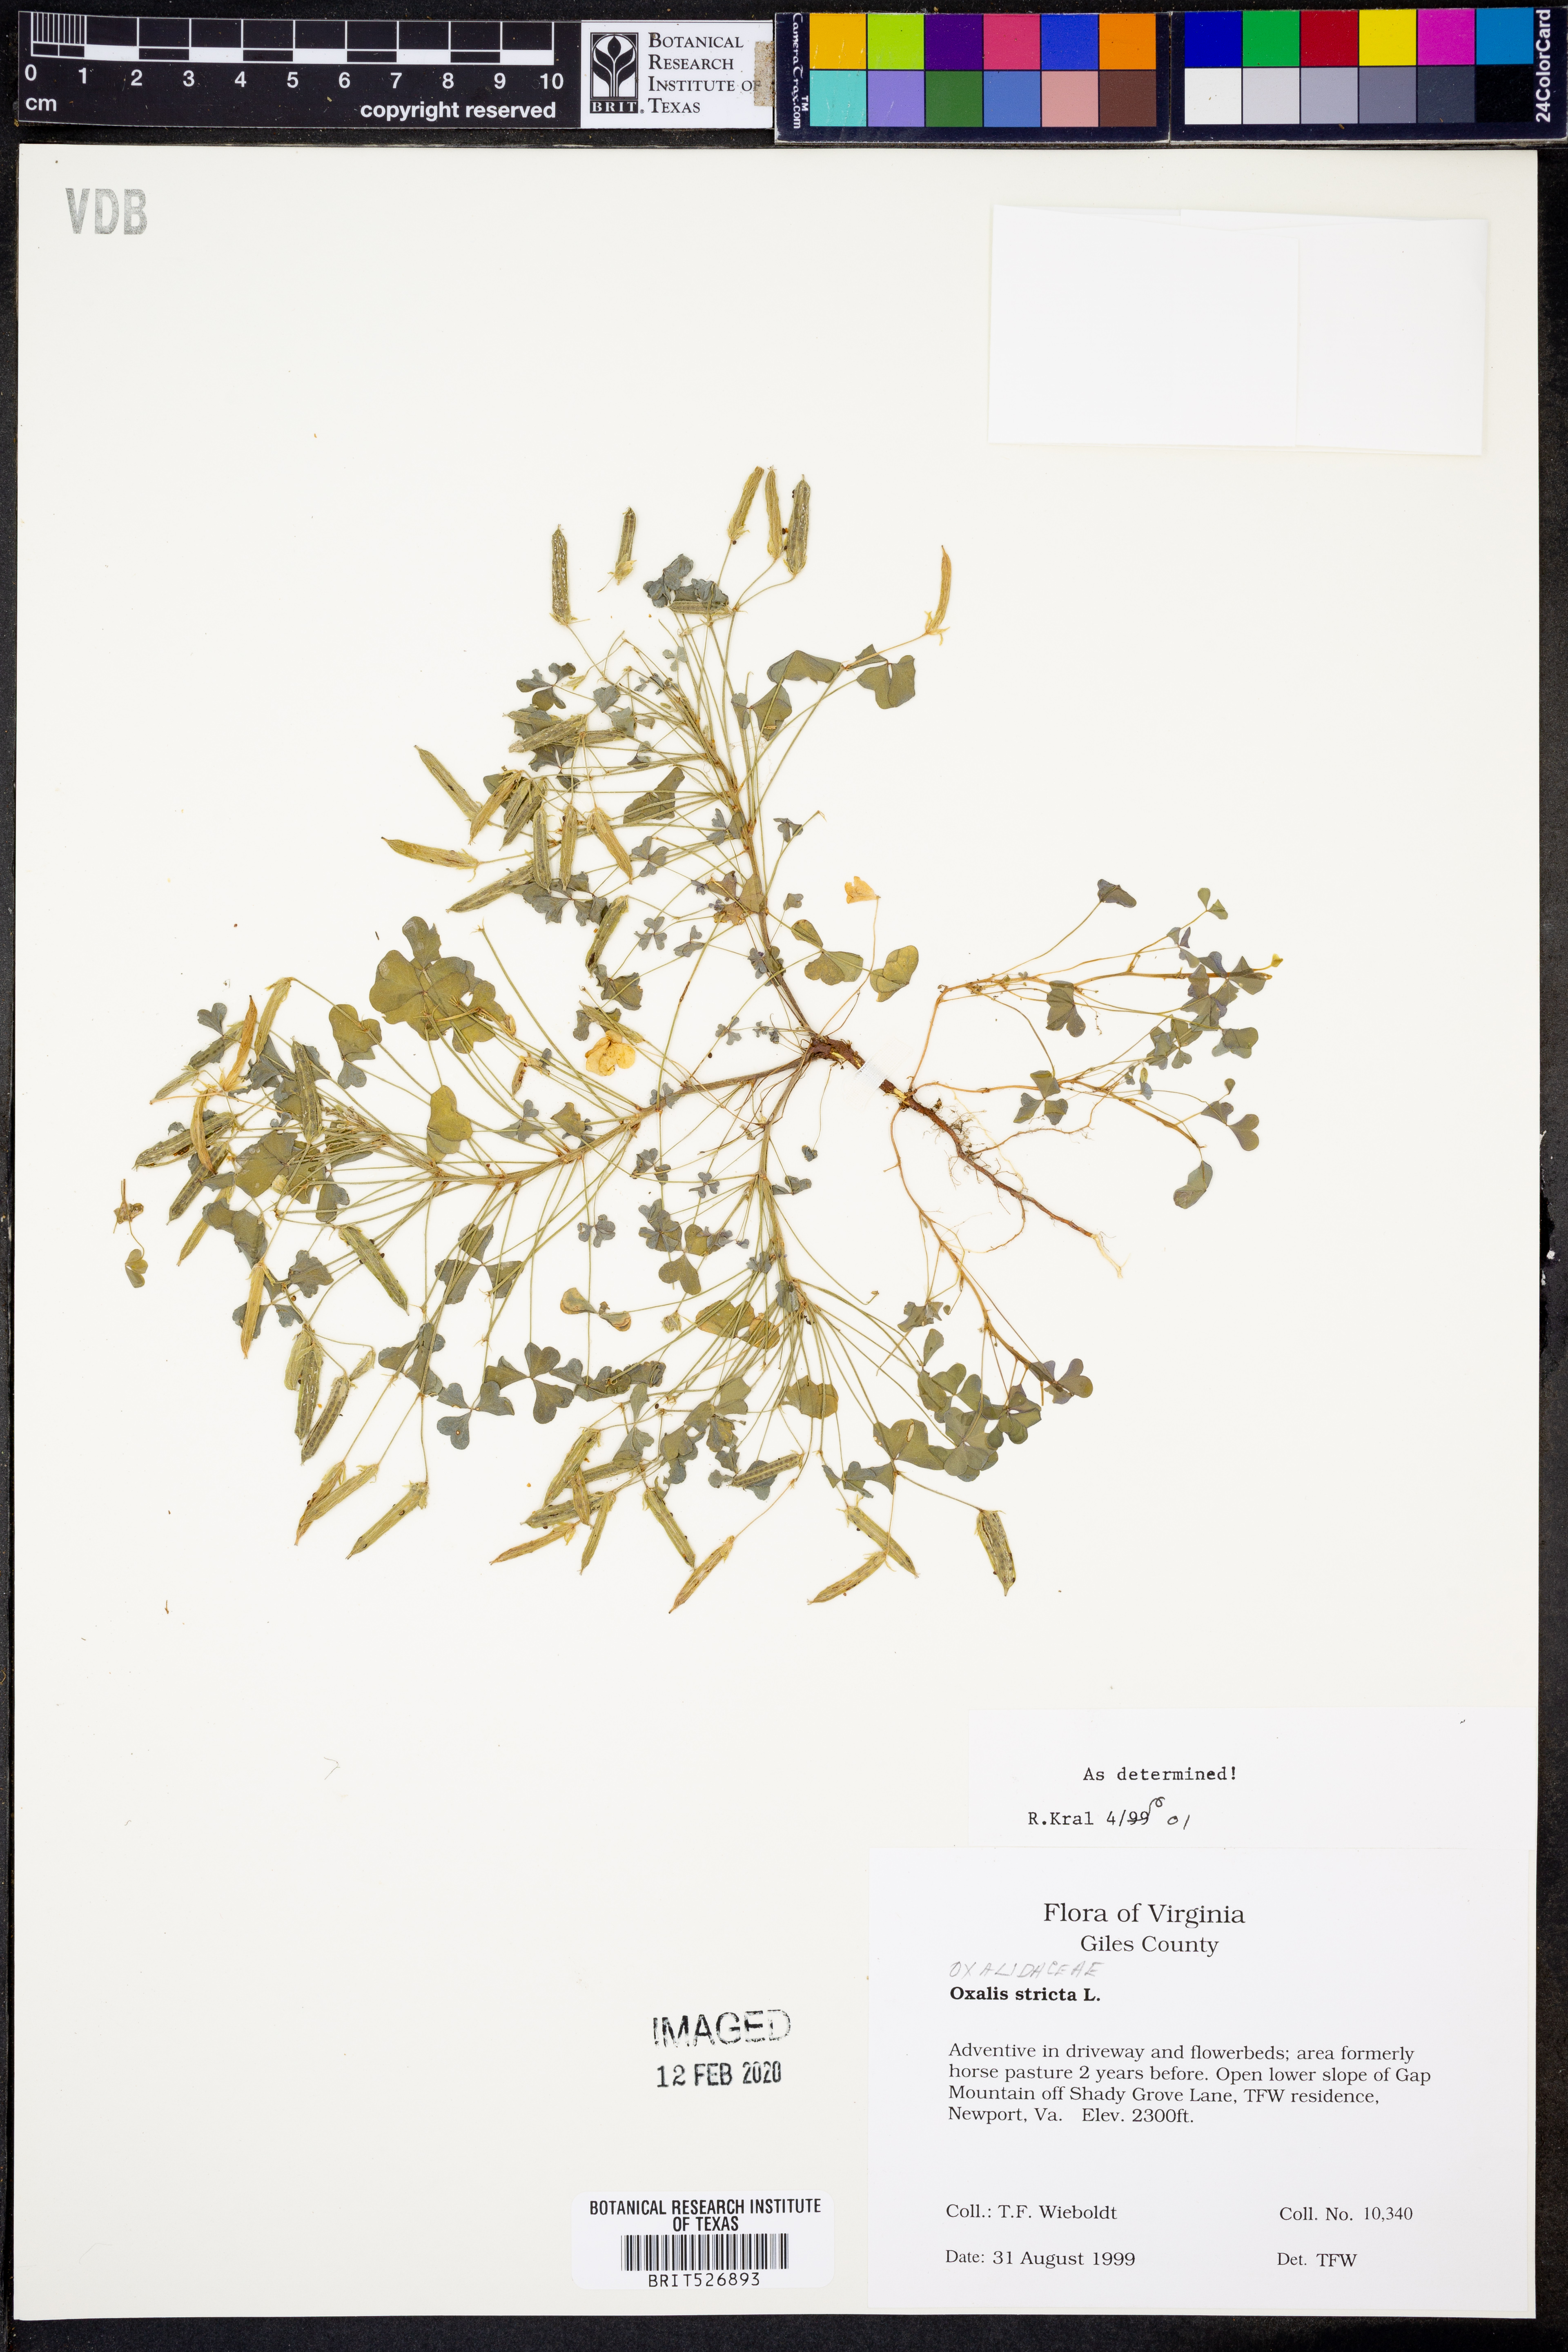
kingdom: Plantae
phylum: Tracheophyta
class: Magnoliopsida
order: Oxalidales
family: Oxalidaceae
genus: Oxalis
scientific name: Oxalis stricta
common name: Upright yellow-sorrel
